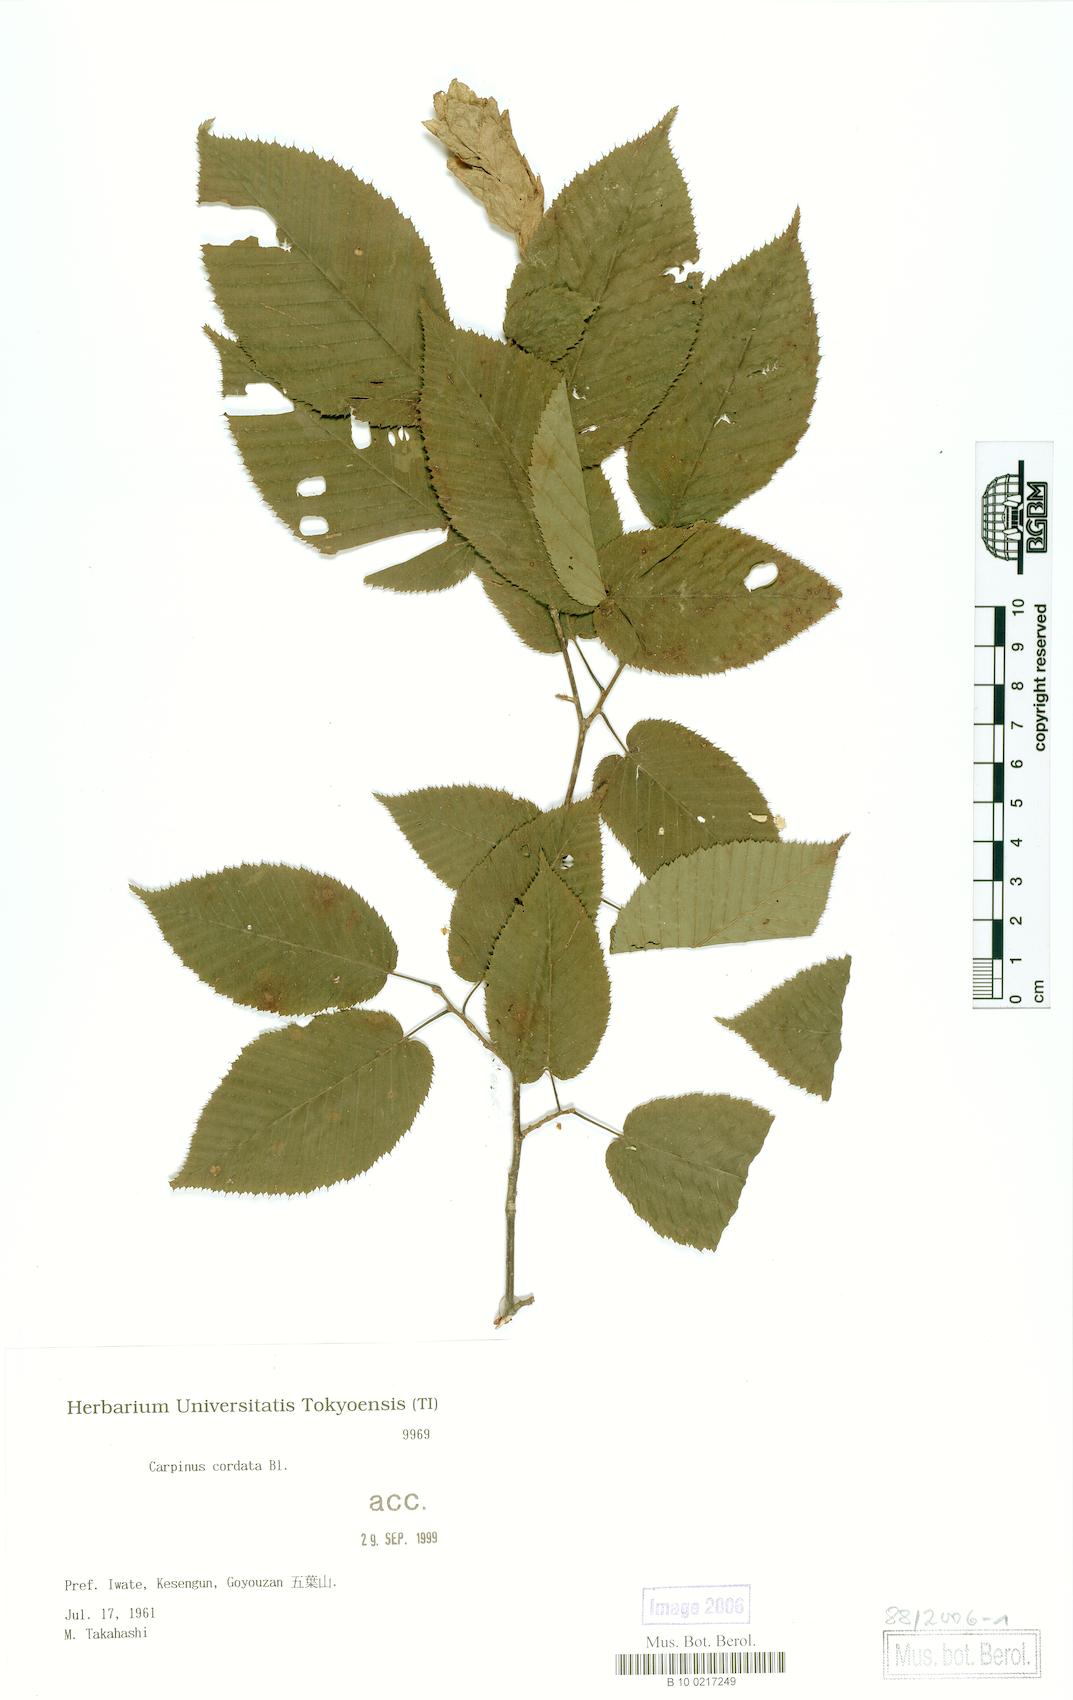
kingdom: Plantae
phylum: Tracheophyta
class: Magnoliopsida
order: Fagales
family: Betulaceae
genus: Carpinus
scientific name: Carpinus cordata
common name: Sawa hornbeam
